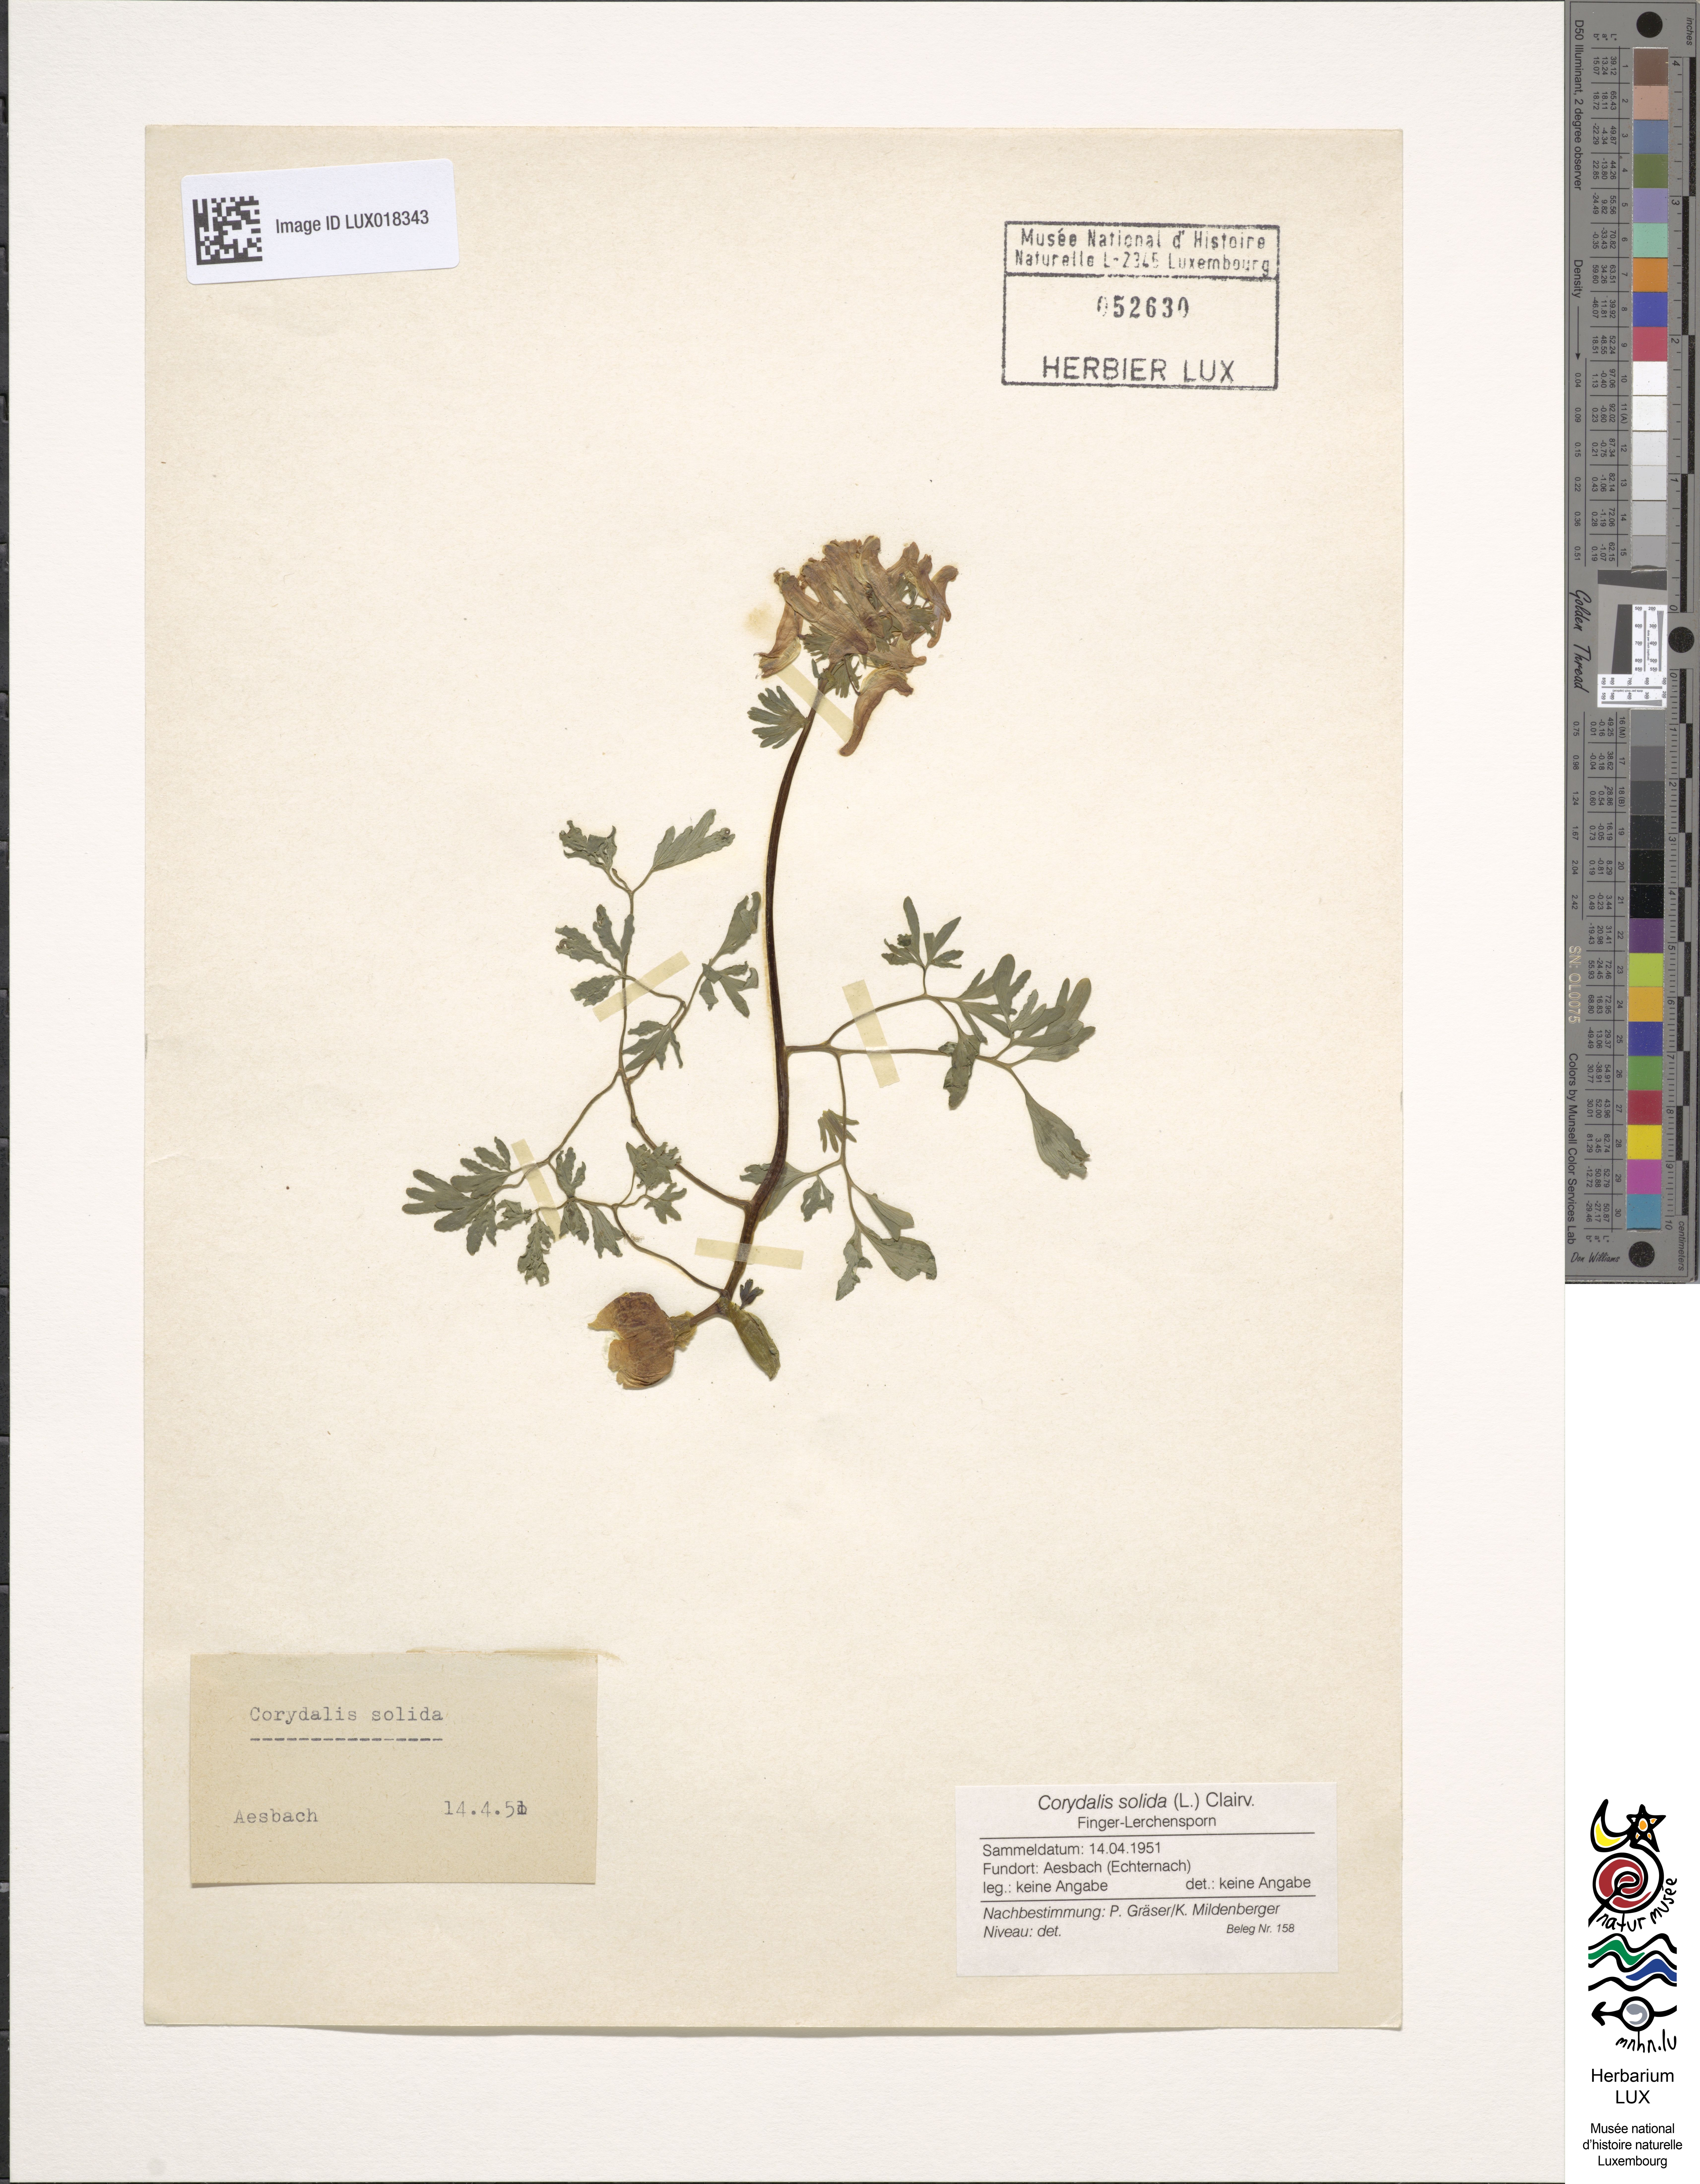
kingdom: Plantae
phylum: Tracheophyta
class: Magnoliopsida
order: Ranunculales
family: Papaveraceae
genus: Corydalis
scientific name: Corydalis solida
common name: Bird-in-a-bush
